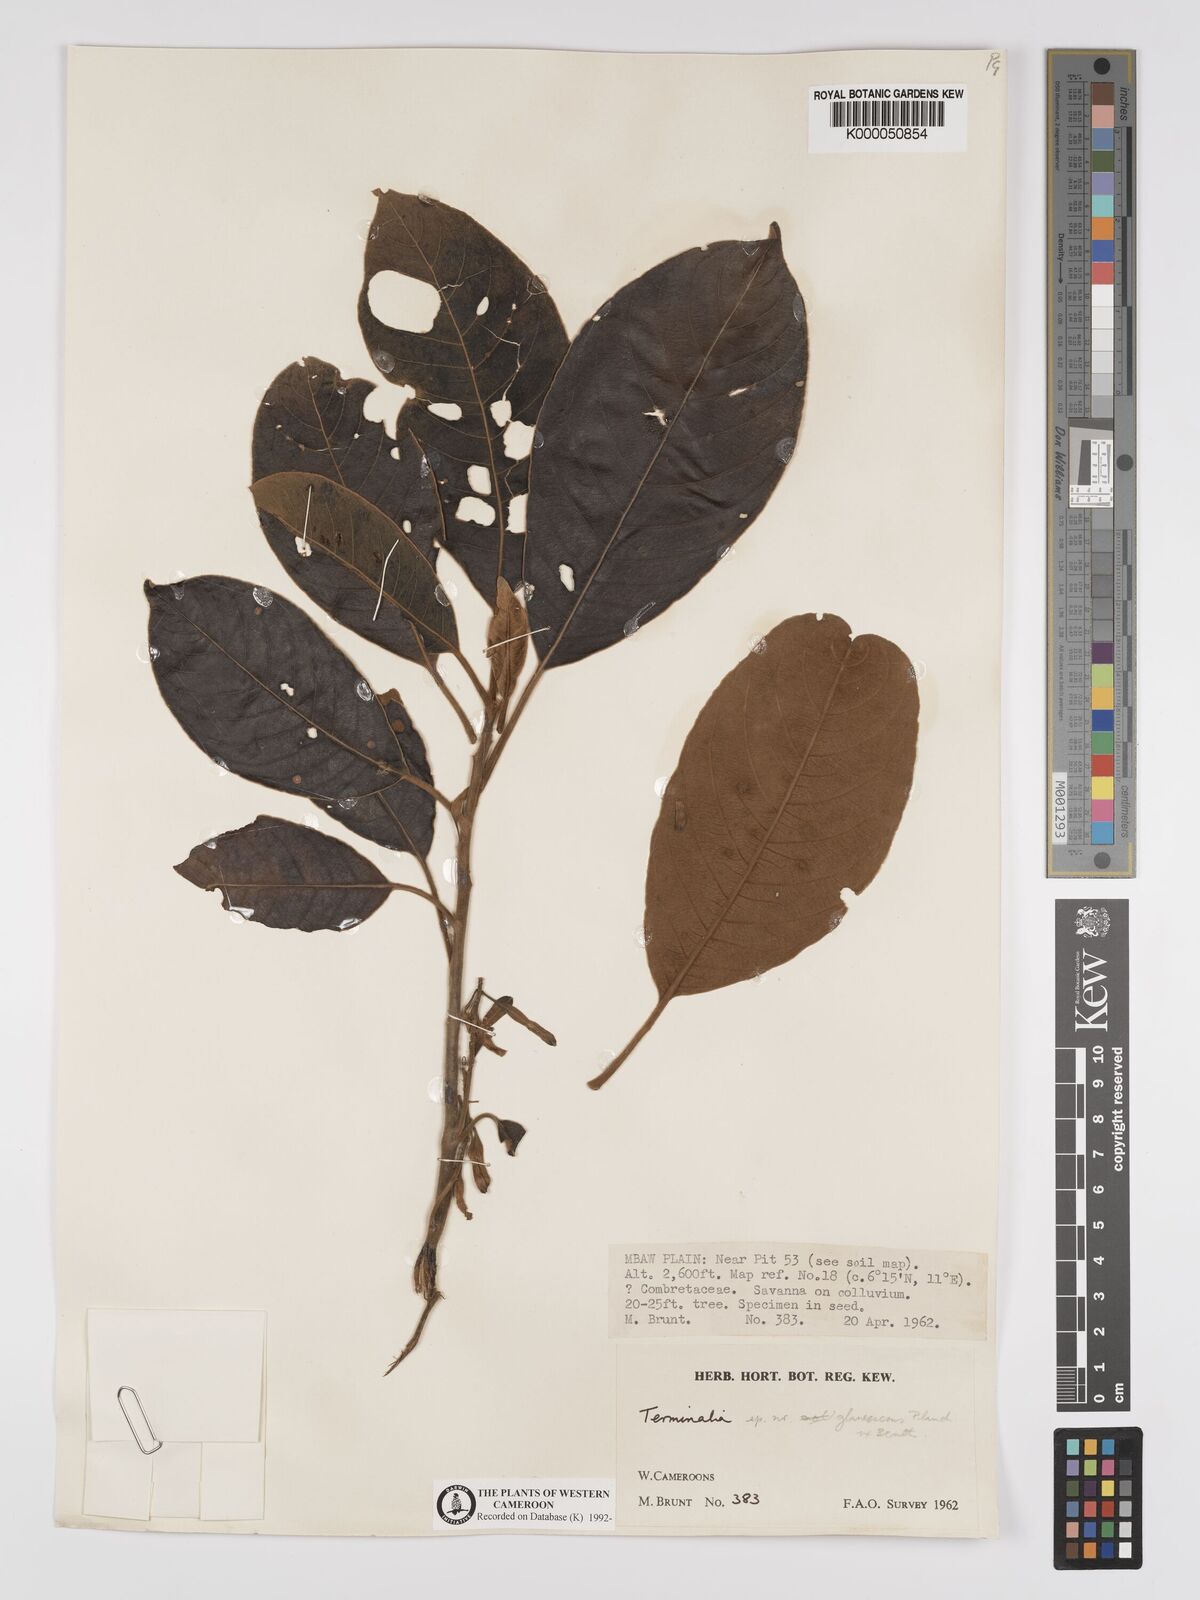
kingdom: Plantae
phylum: Tracheophyta
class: Magnoliopsida
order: Myrtales
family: Combretaceae
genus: Terminalia
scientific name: Terminalia schimperiana
